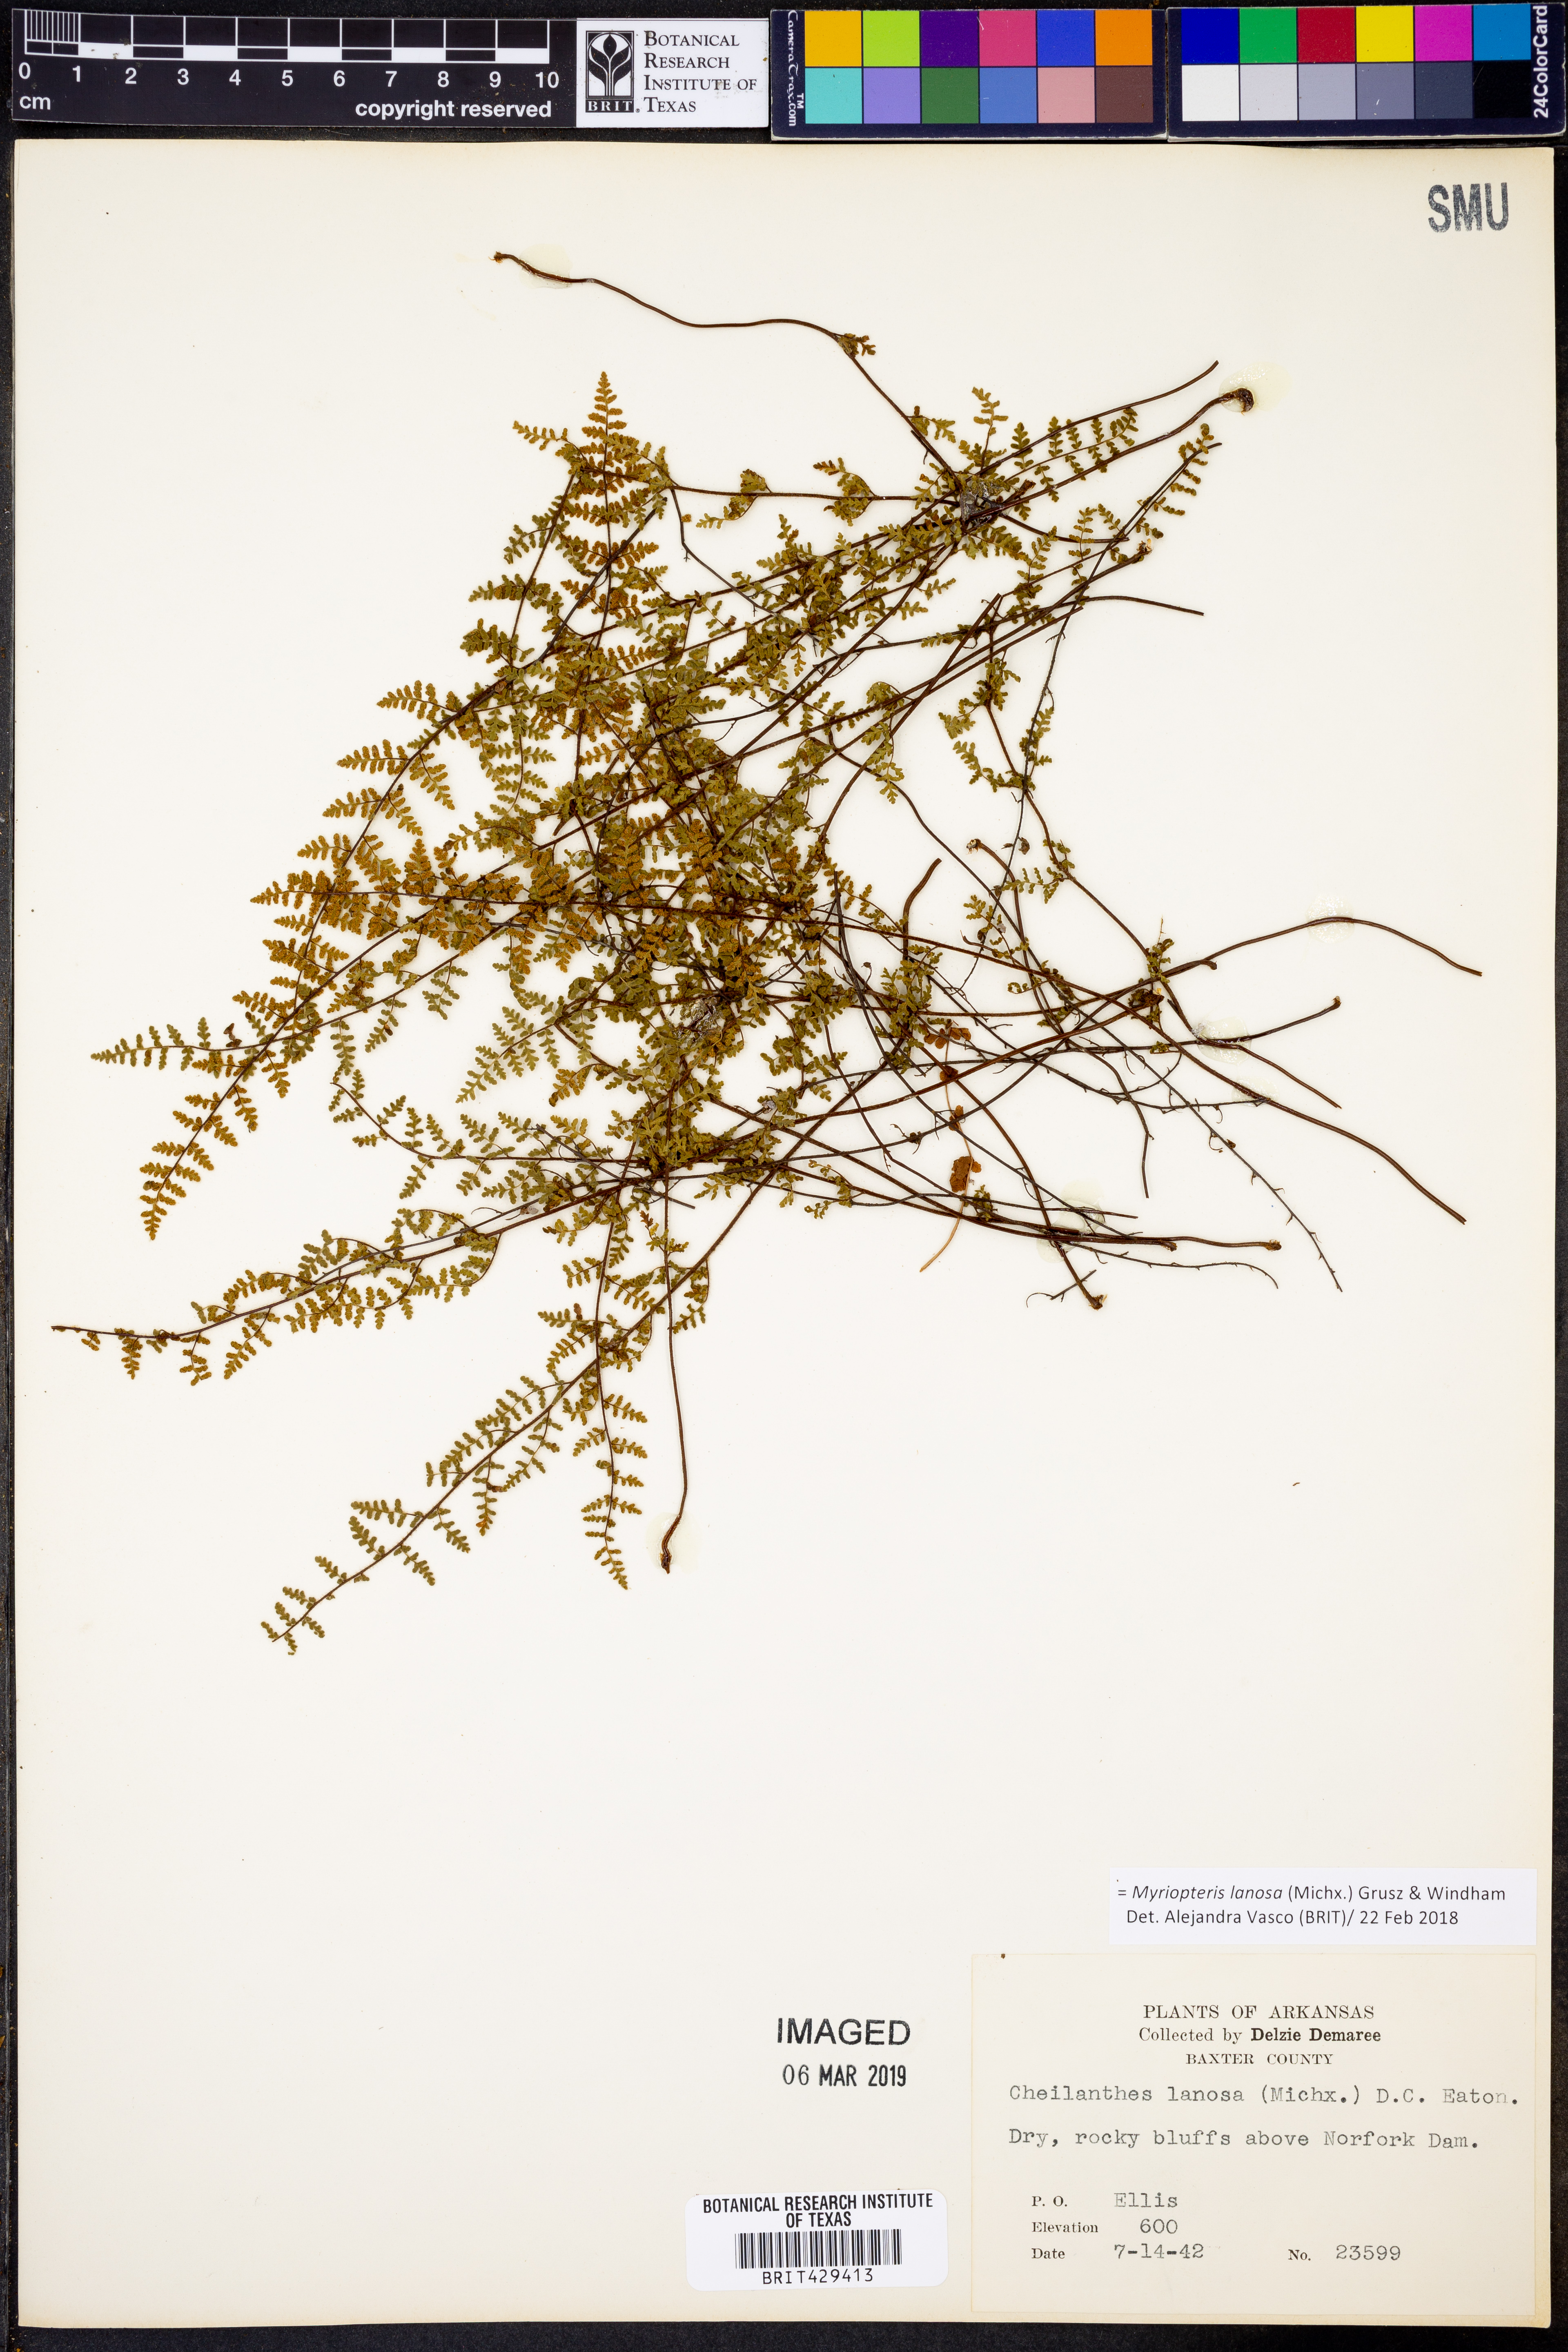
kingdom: Plantae
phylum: Tracheophyta
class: Polypodiopsida
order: Polypodiales
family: Pteridaceae
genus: Myriopteris
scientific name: Myriopteris lanosa
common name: Hairy lip fern
